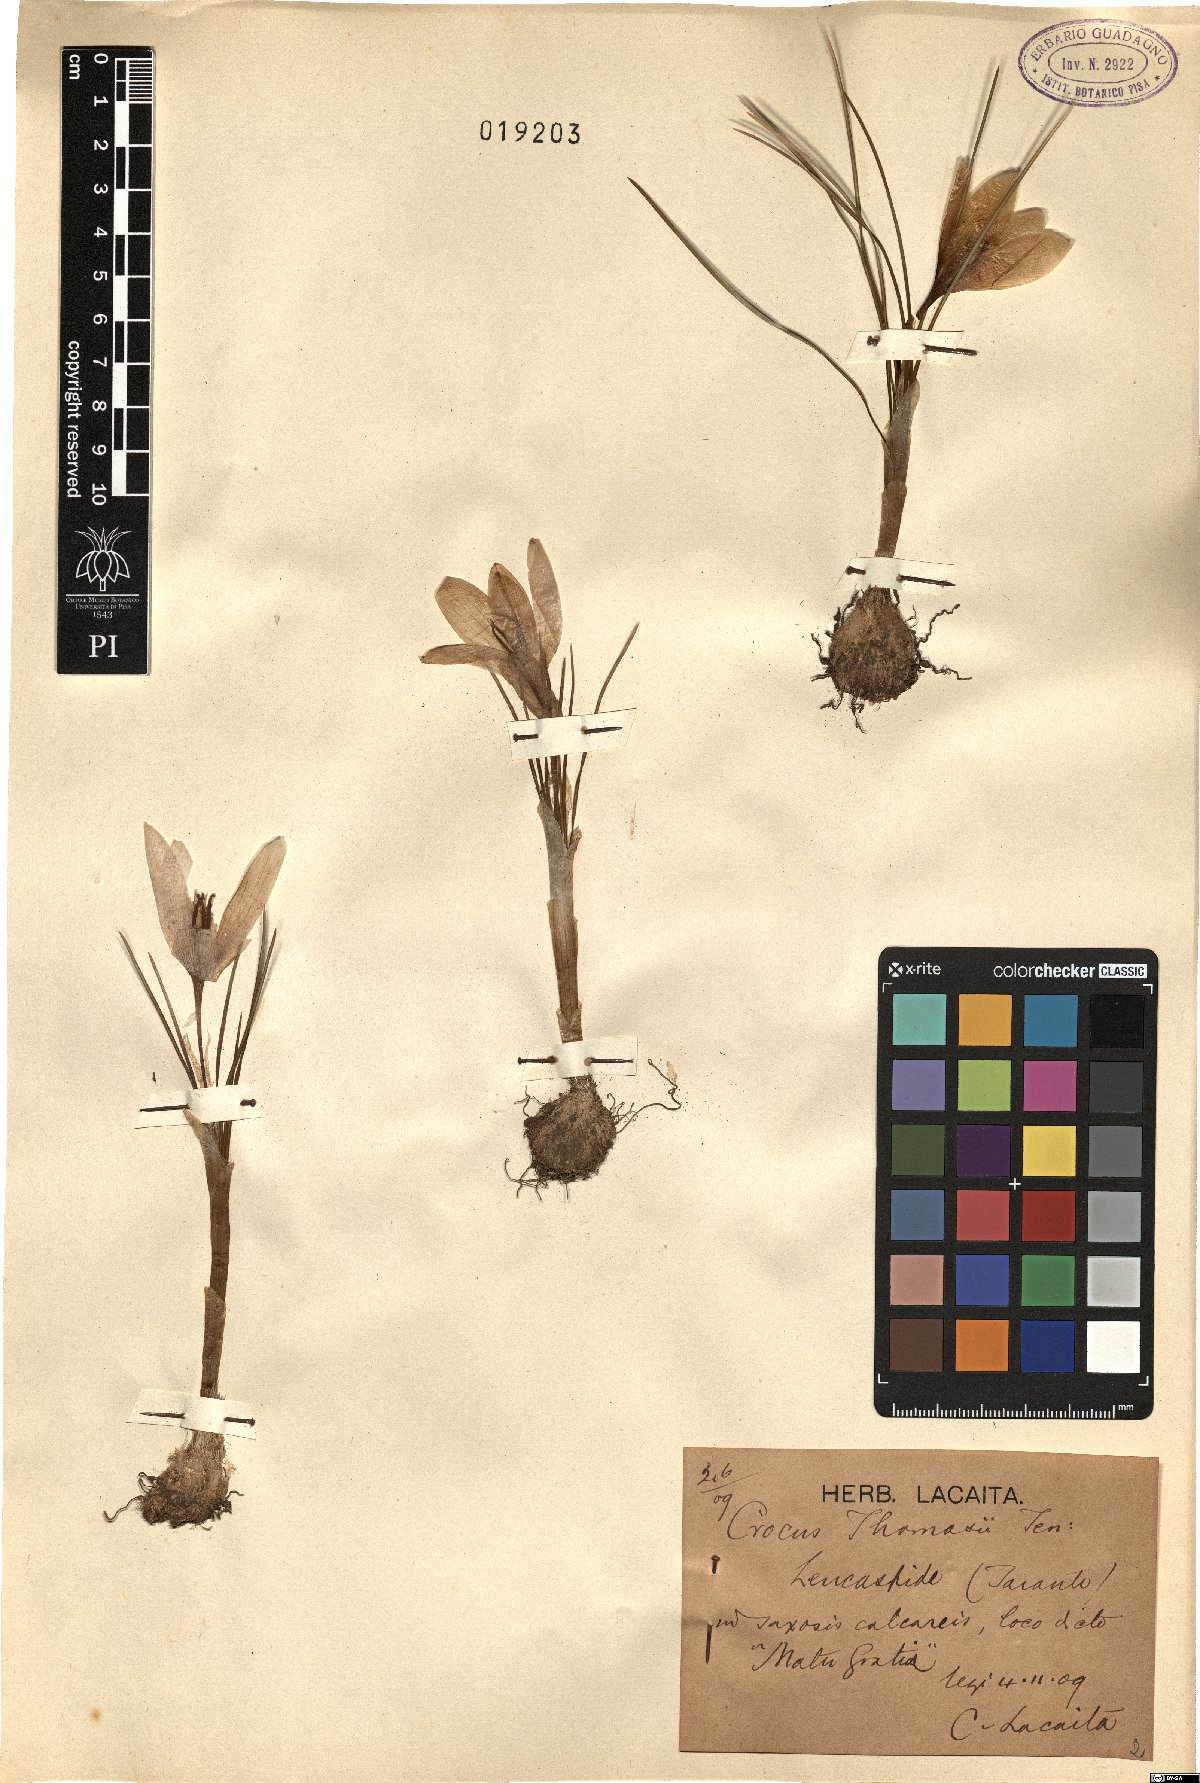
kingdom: Plantae
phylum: Tracheophyta
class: Liliopsida
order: Asparagales
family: Iridaceae
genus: Crocus
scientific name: Crocus thomasii
